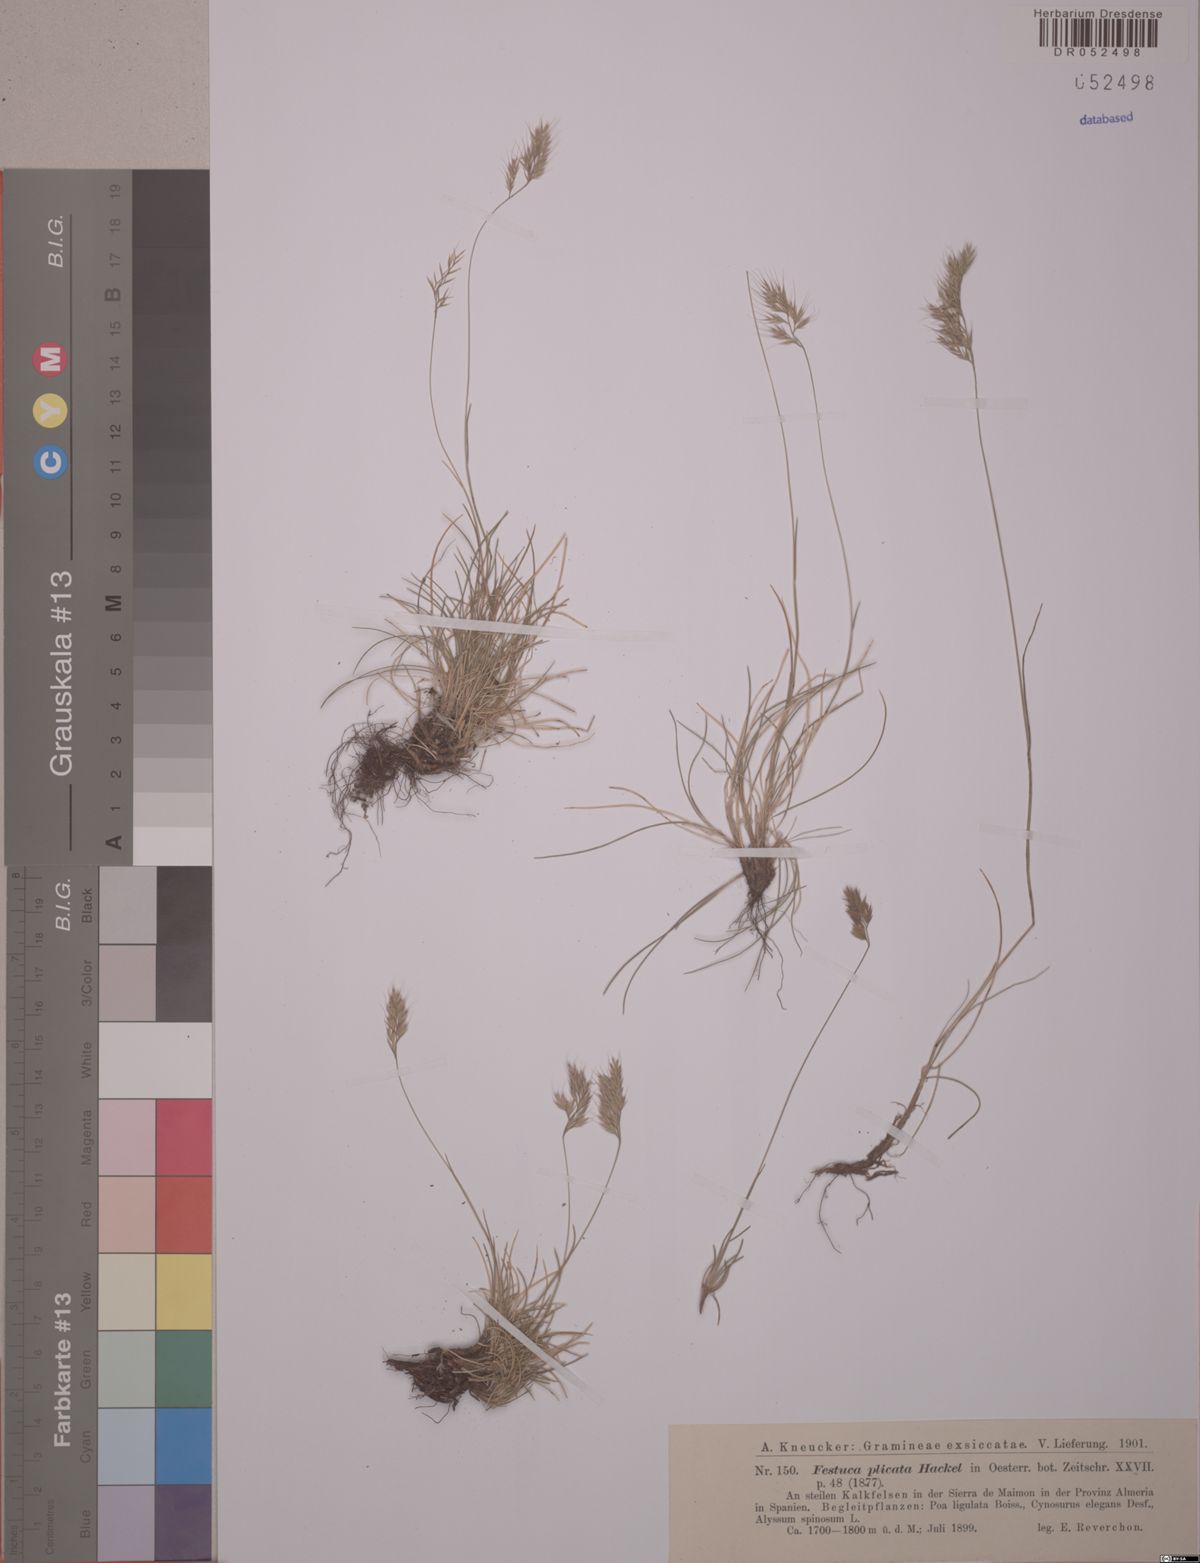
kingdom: Plantae
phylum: Tracheophyta
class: Liliopsida
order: Poales
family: Poaceae
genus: Festuca
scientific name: Festuca plicata
